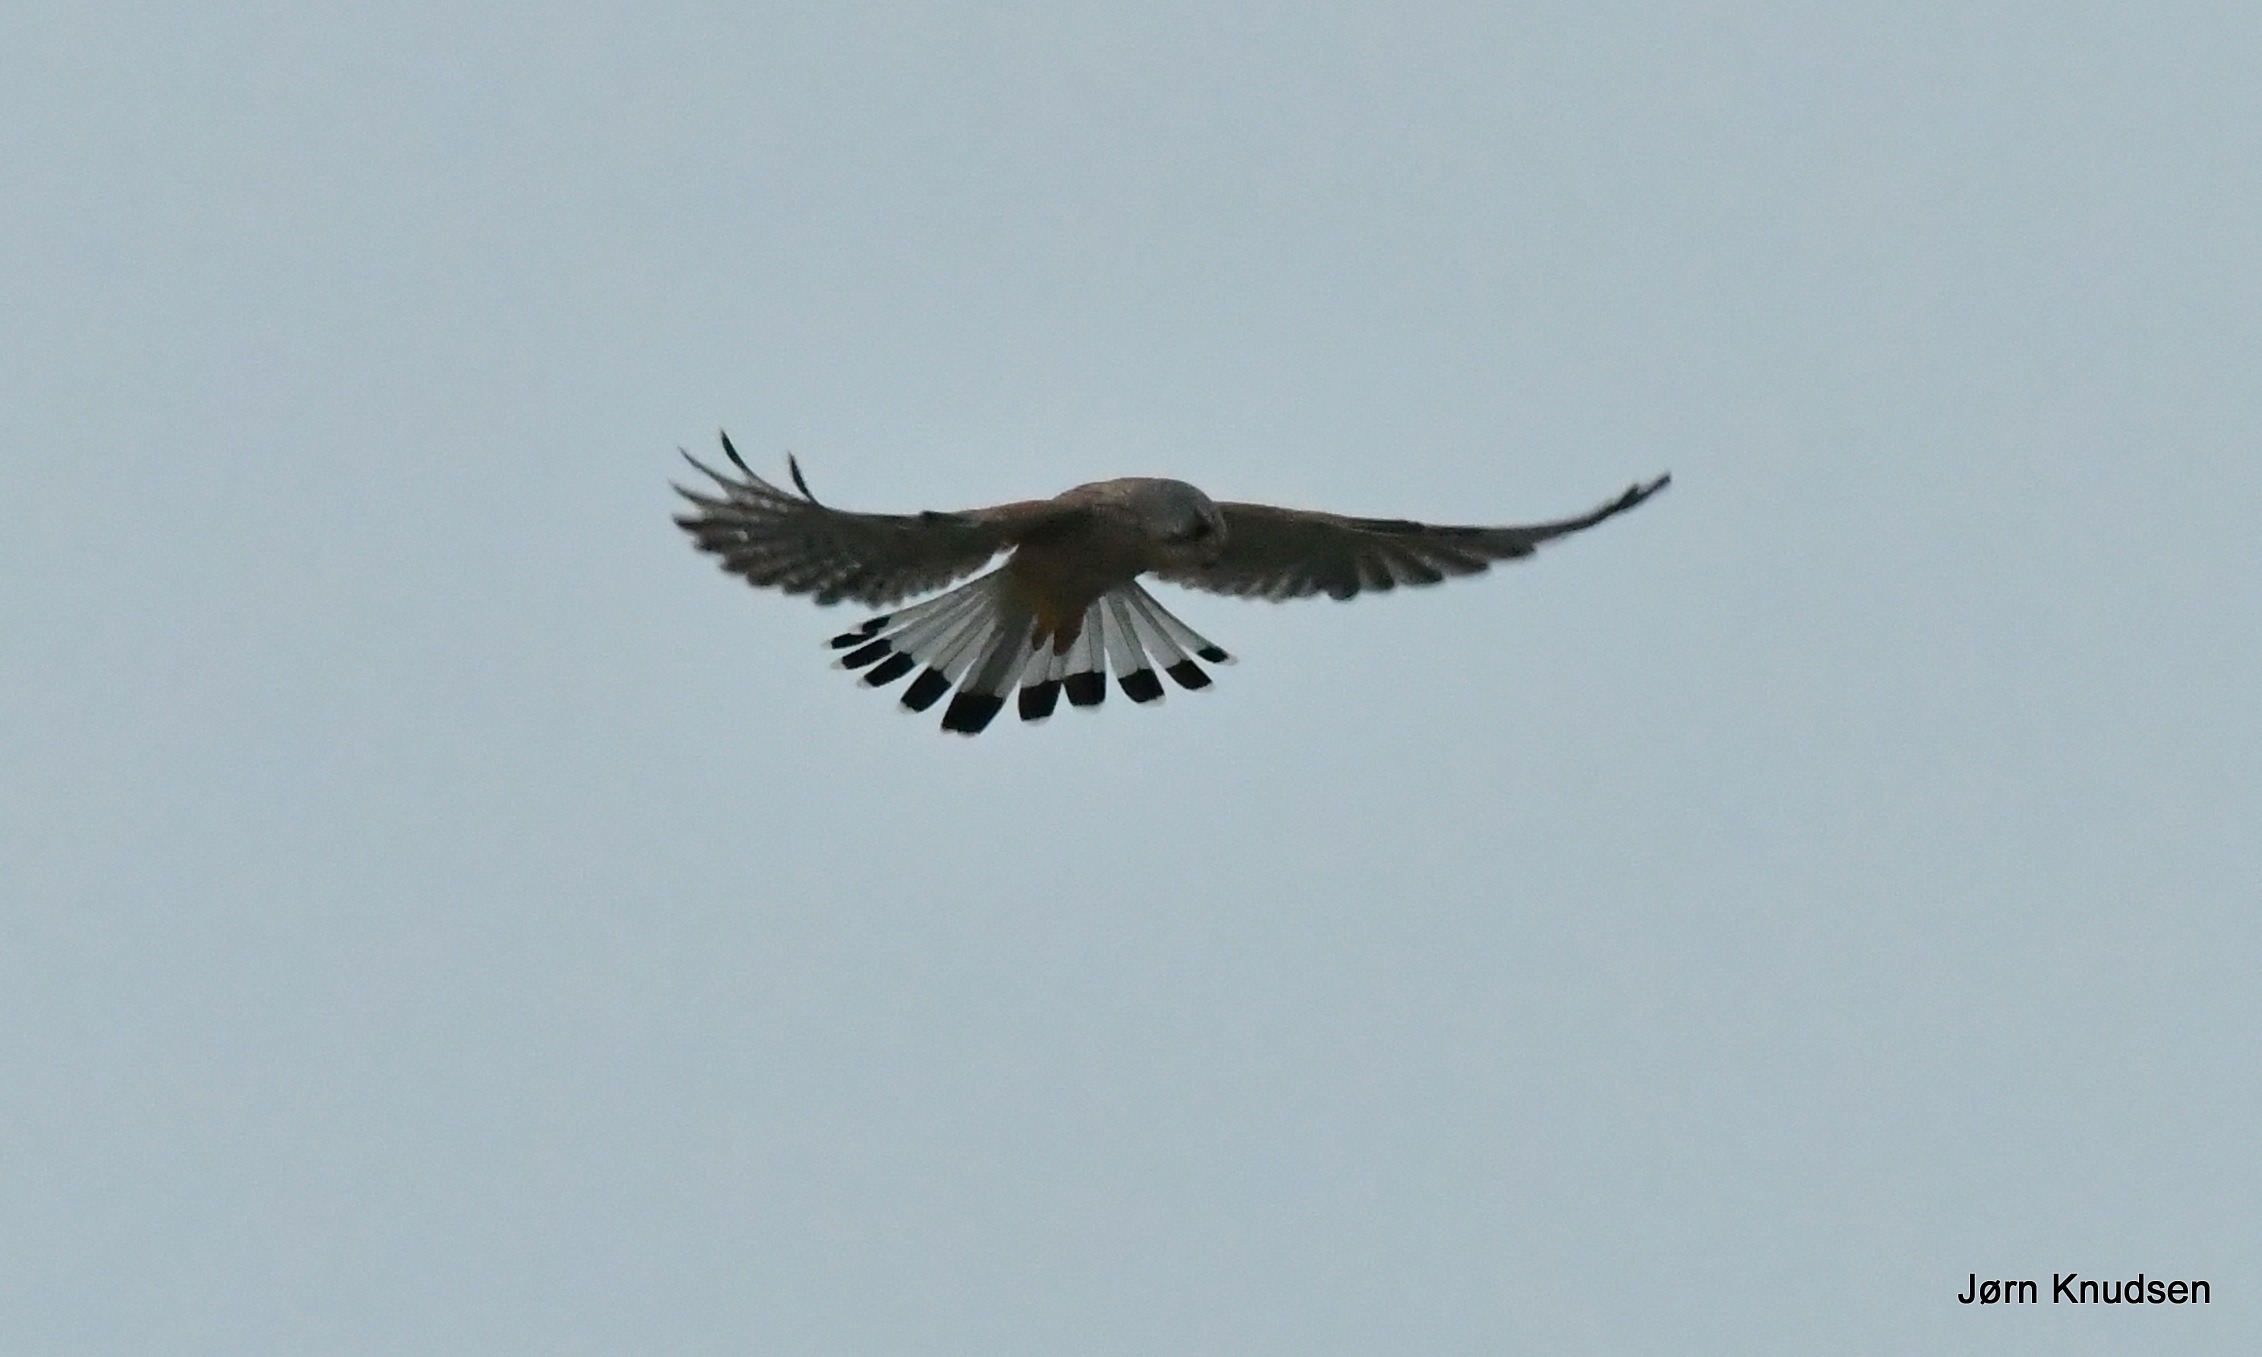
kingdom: Animalia
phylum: Chordata
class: Aves
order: Falconiformes
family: Falconidae
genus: Falco
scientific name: Falco tinnunculus
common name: Tårnfalk
